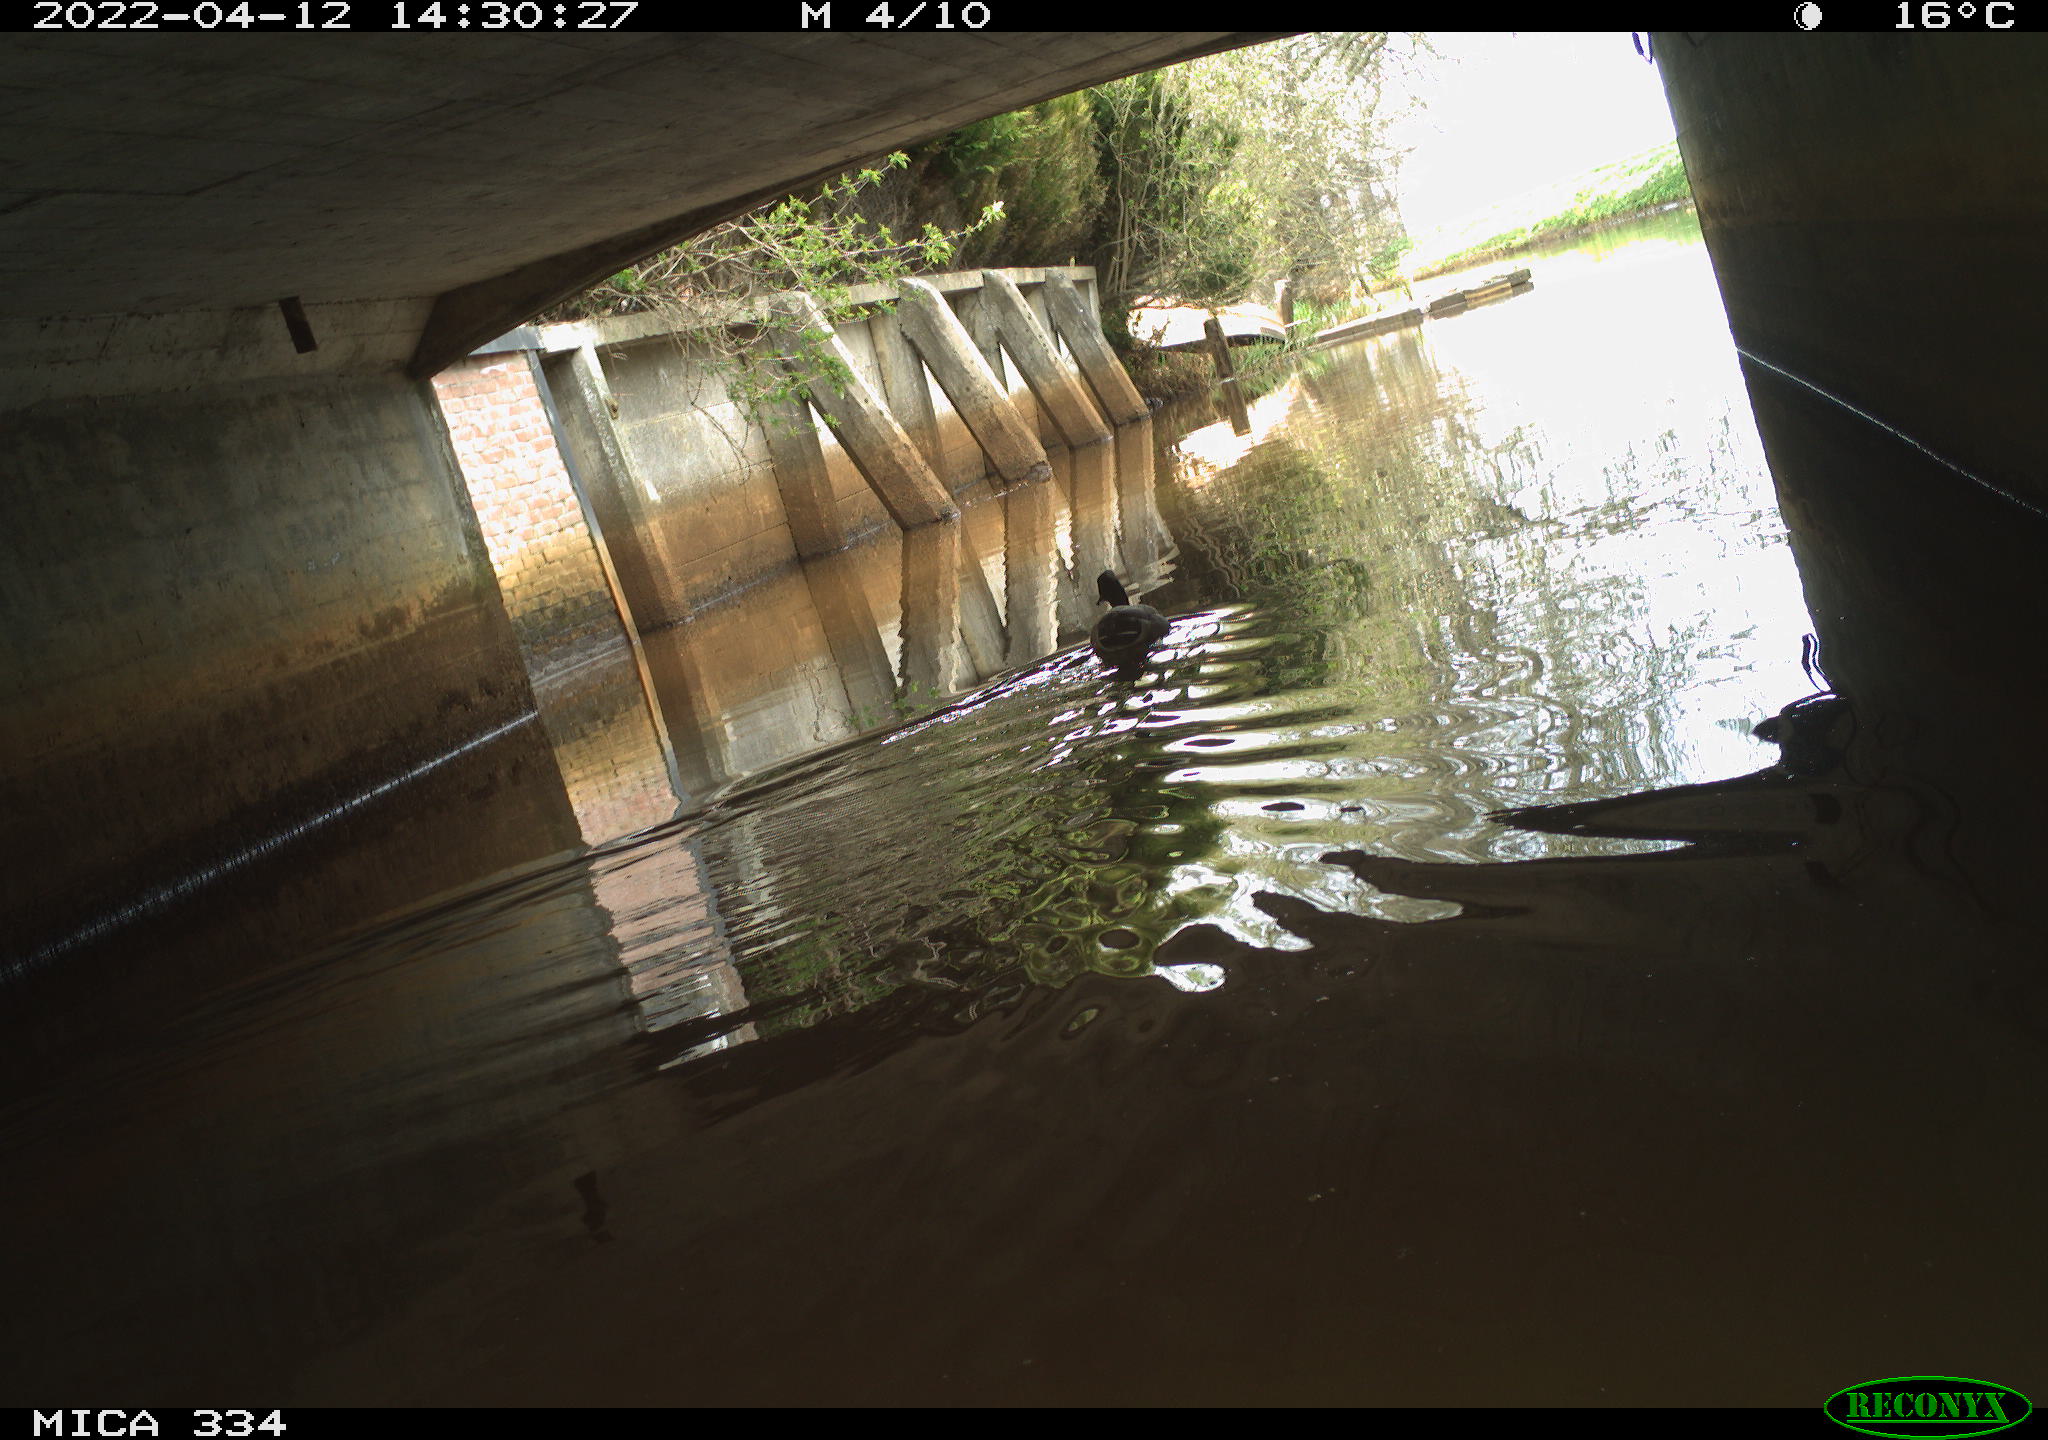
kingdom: Animalia
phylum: Chordata
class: Aves
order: Anseriformes
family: Anatidae
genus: Anas
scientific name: Anas platyrhynchos
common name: Mallard
